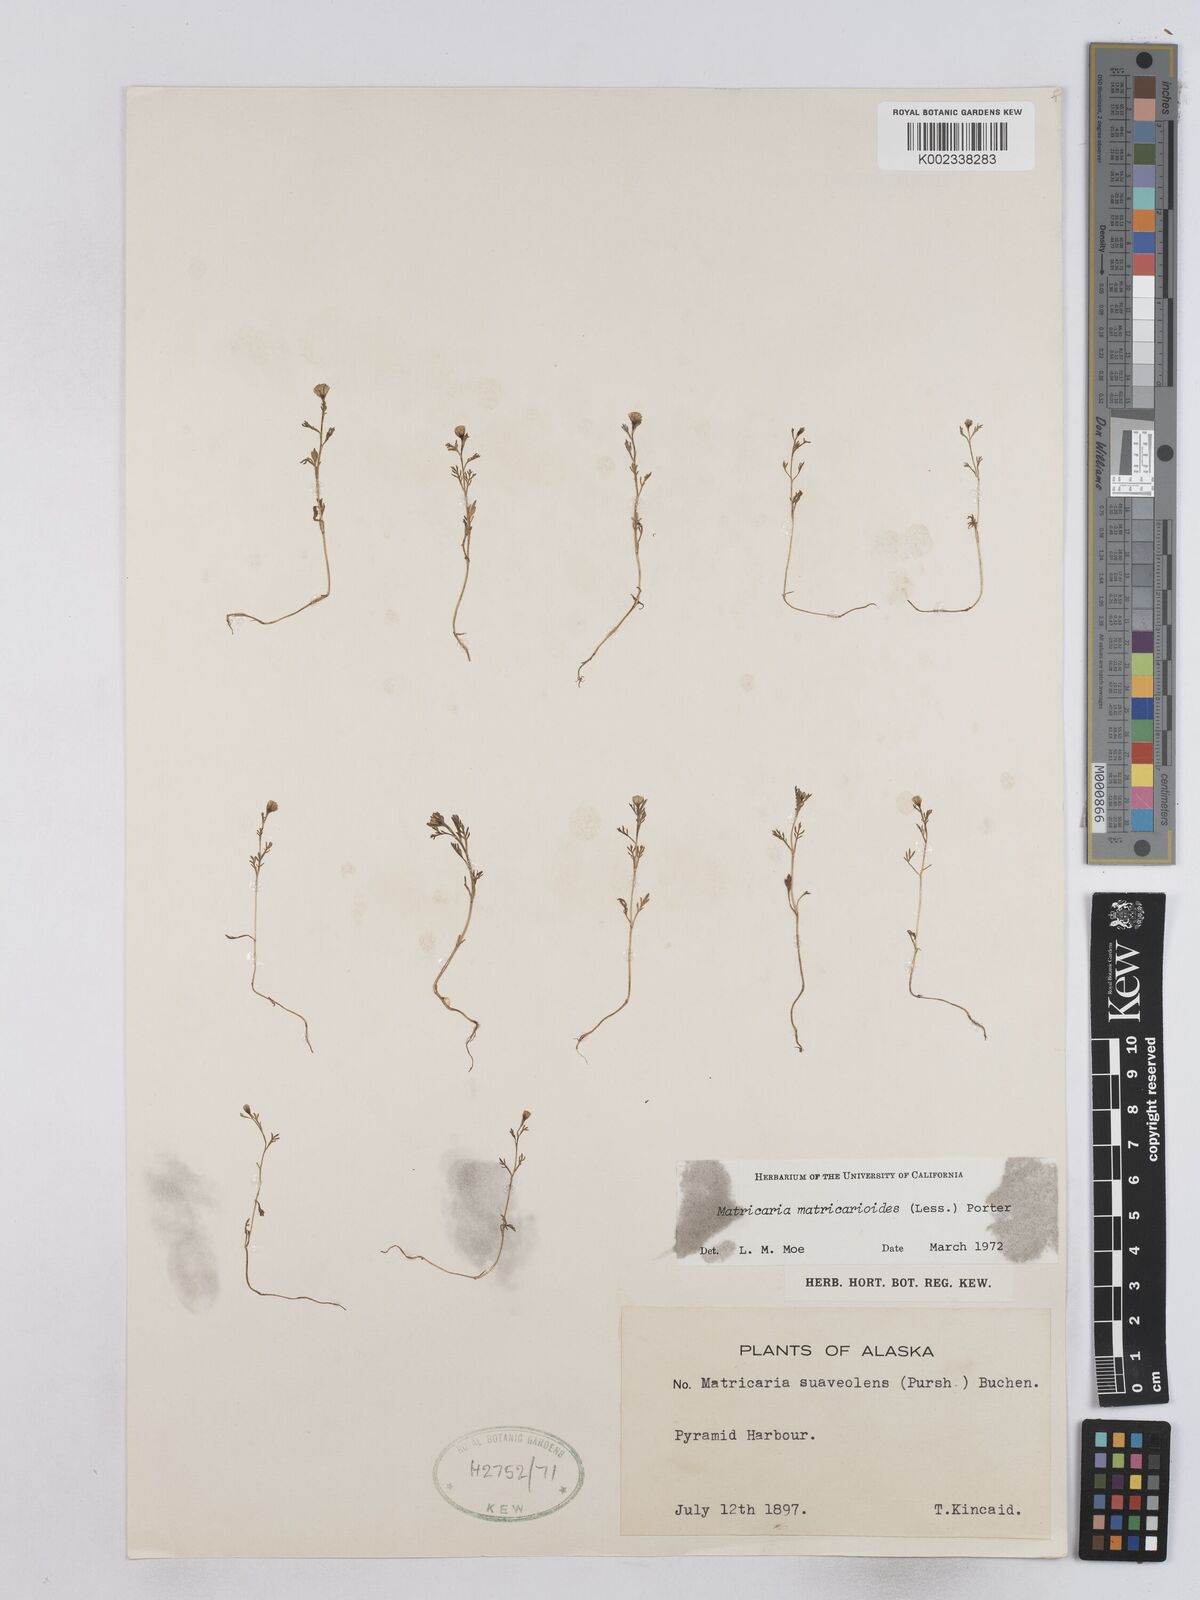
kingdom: Plantae
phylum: Tracheophyta
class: Magnoliopsida
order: Asterales
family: Asteraceae
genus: Matricaria
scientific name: Matricaria discoidea
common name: Disc mayweed
